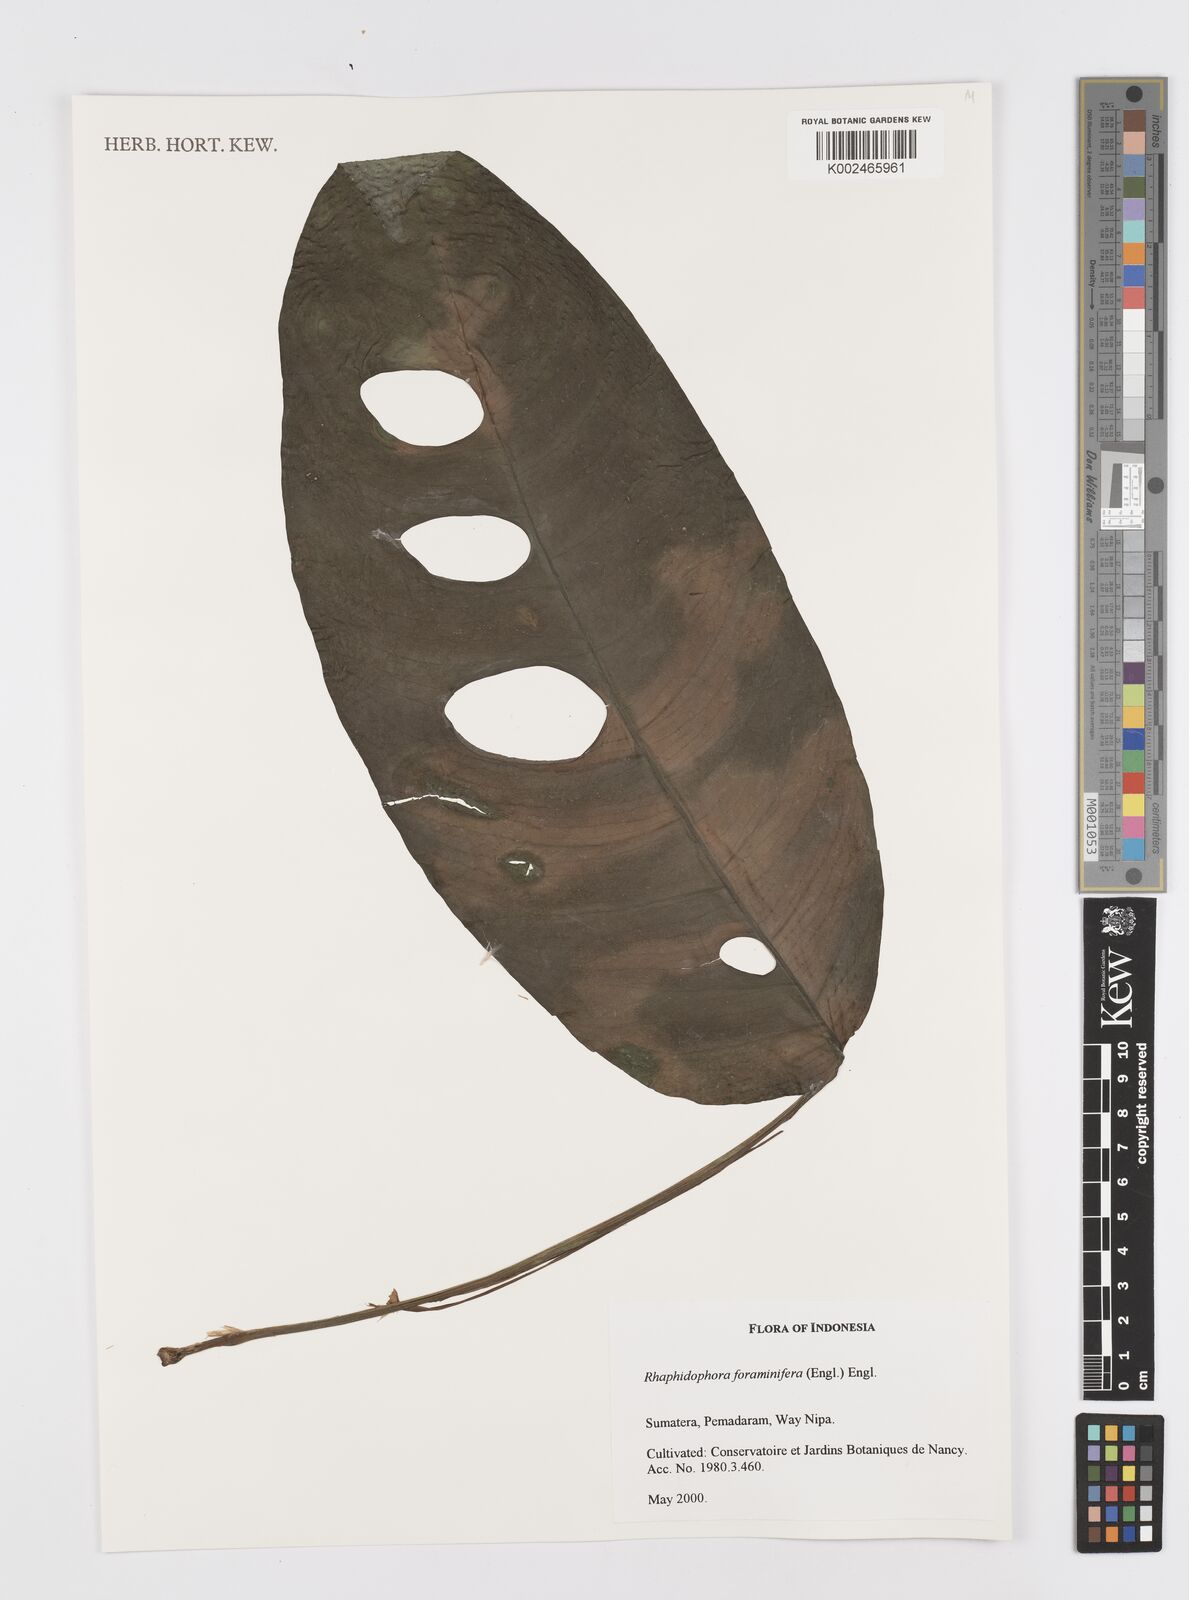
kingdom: Plantae
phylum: Tracheophyta
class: Liliopsida
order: Alismatales
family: Araceae
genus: Rhaphidophora
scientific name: Rhaphidophora foraminifera
